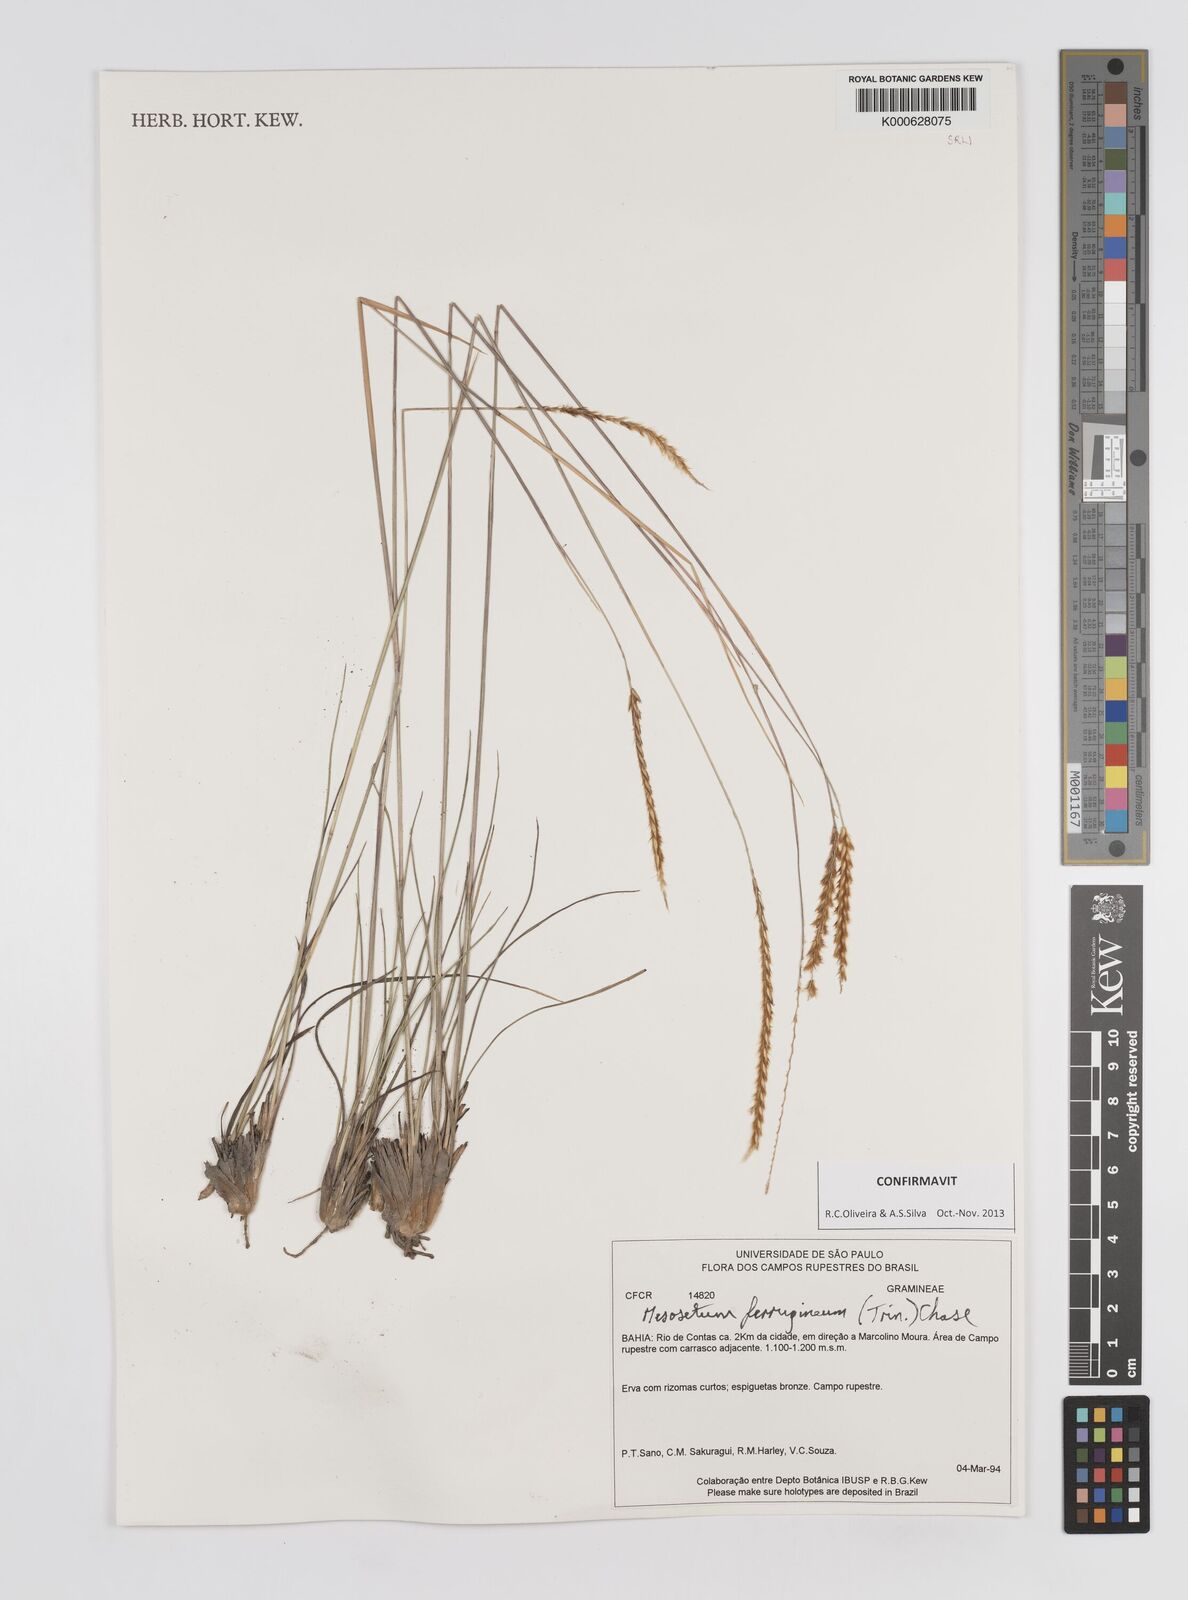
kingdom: Plantae
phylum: Tracheophyta
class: Liliopsida
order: Poales
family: Poaceae
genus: Mesosetum
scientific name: Mesosetum ferrugineum
